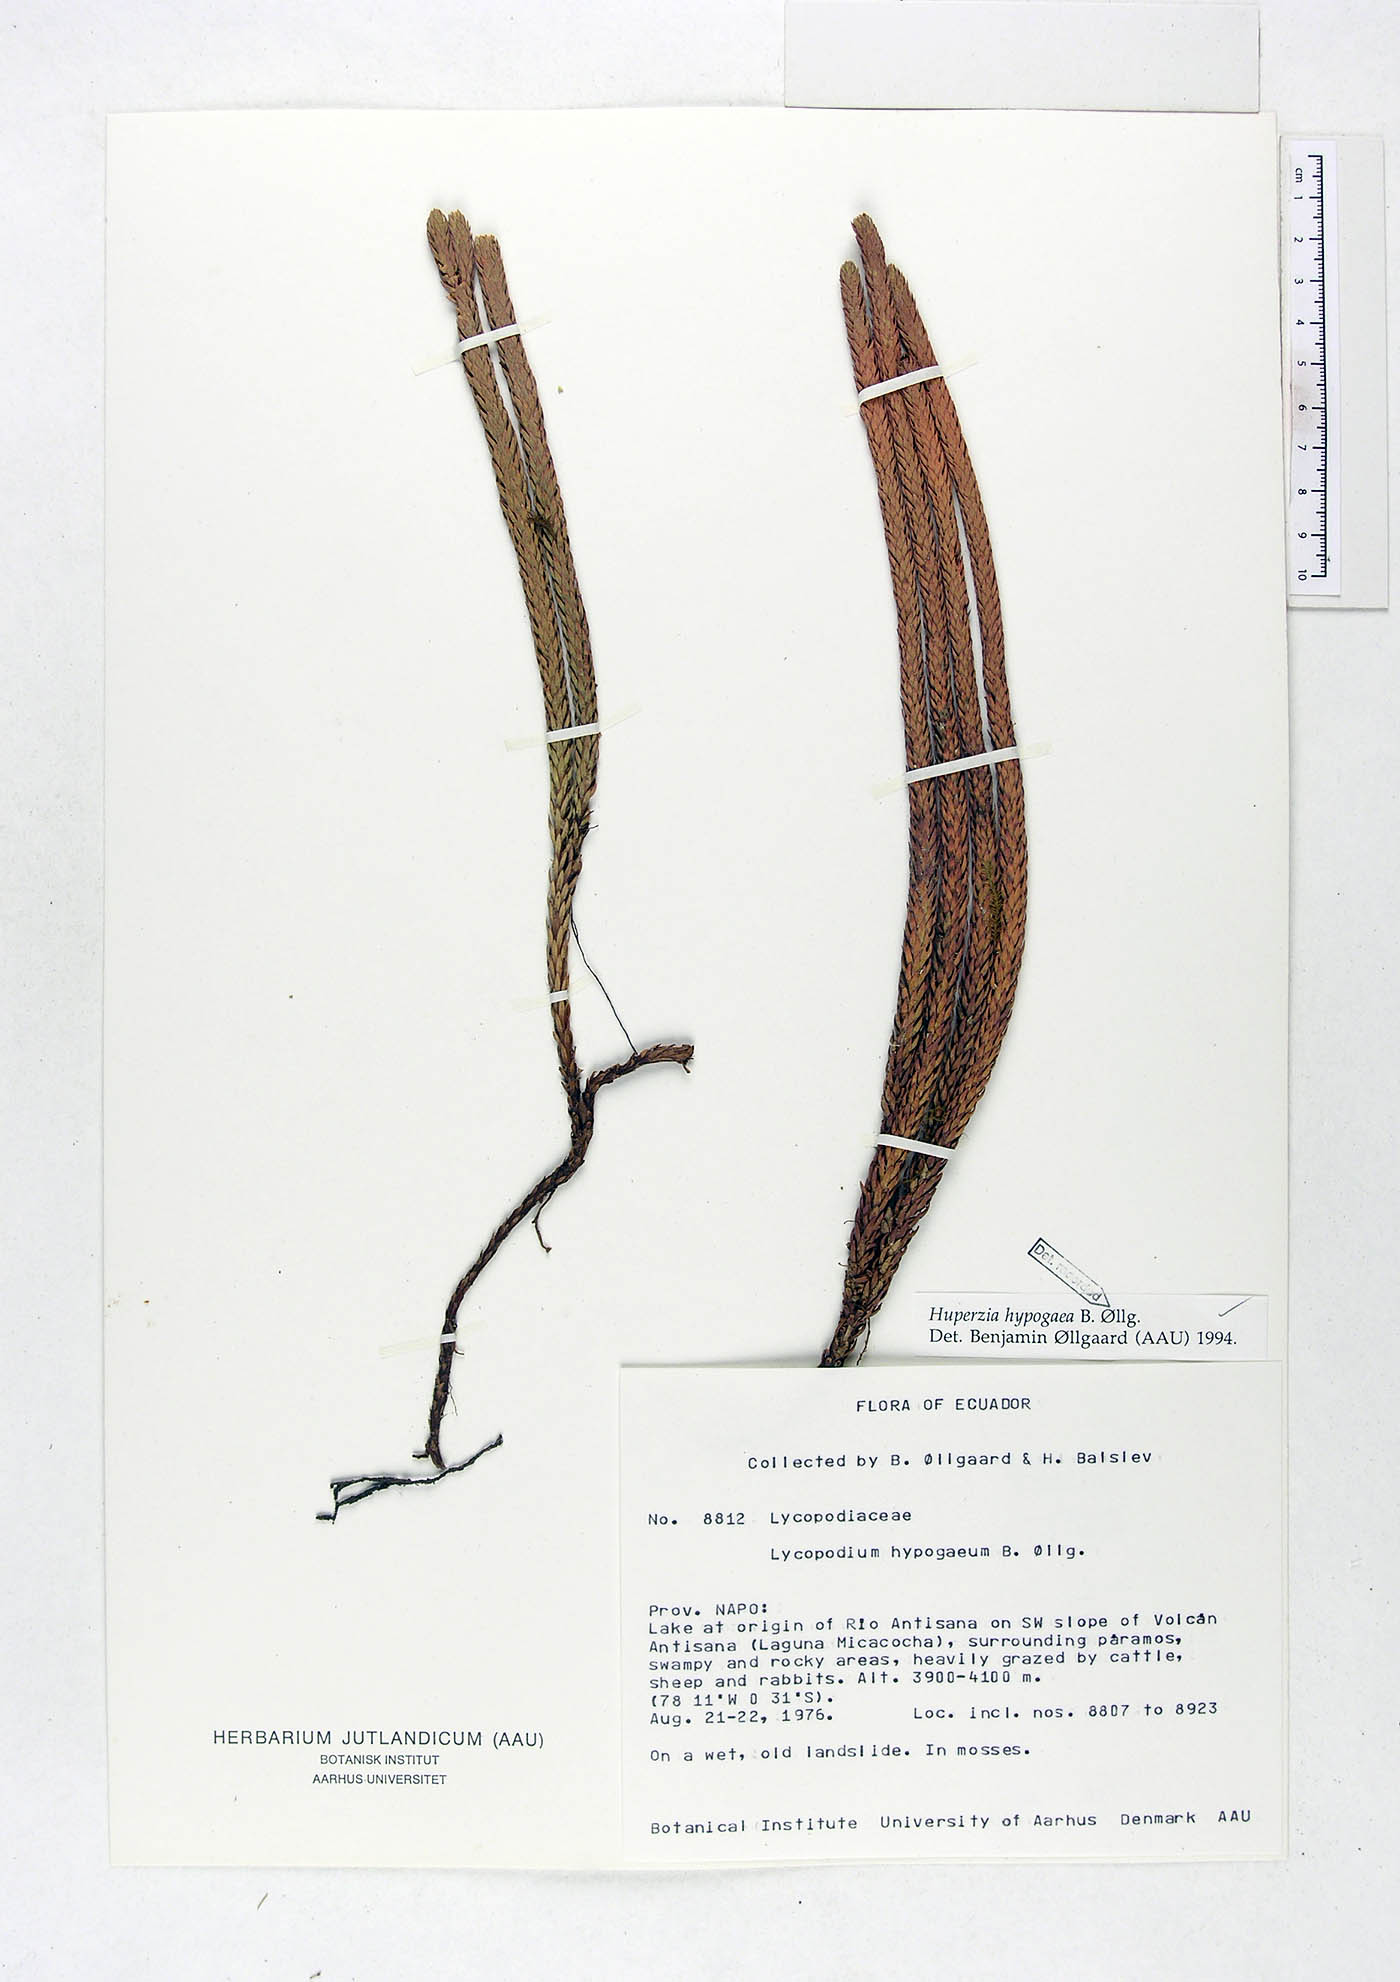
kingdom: Plantae
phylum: Tracheophyta
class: Lycopodiopsida
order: Lycopodiales
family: Lycopodiaceae
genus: Phlegmariurus
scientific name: Phlegmariurus hypogaeus
